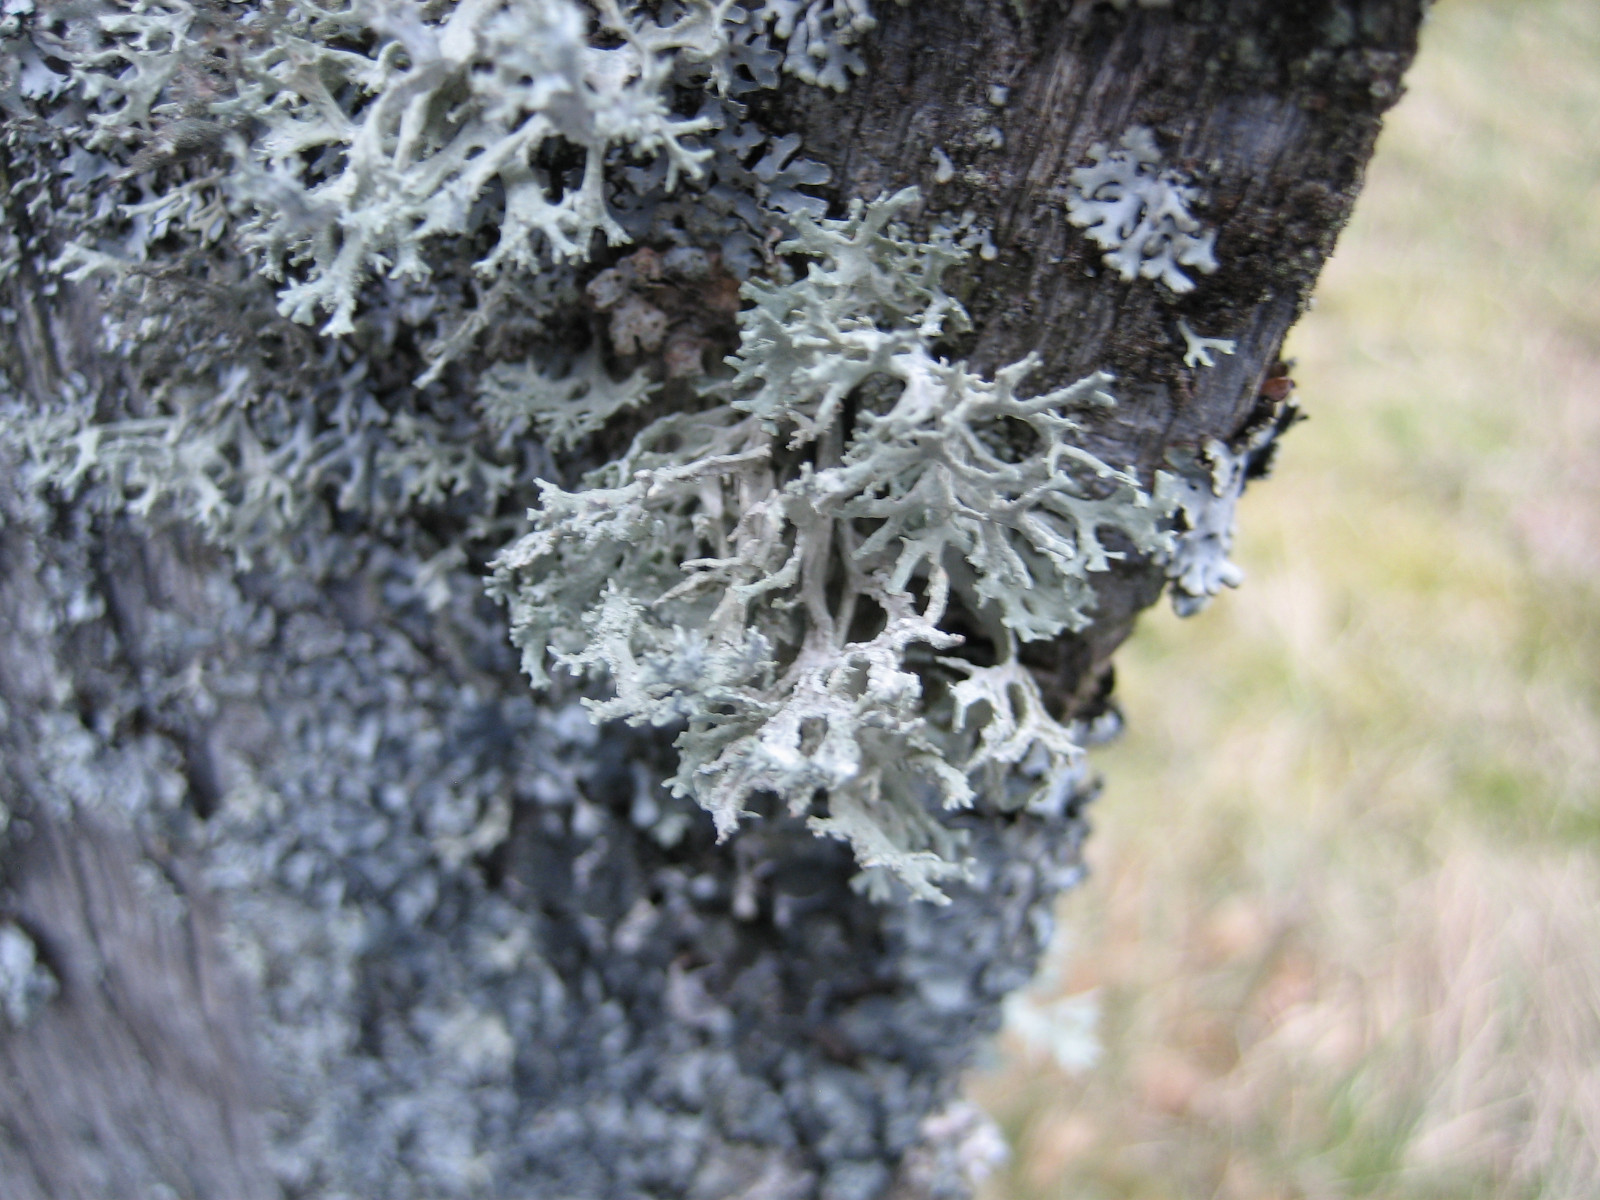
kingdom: Fungi
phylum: Ascomycota
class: Lecanoromycetes
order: Lecanorales
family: Parmeliaceae
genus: Evernia
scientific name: Evernia prunastri
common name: almindelig slåenlav
